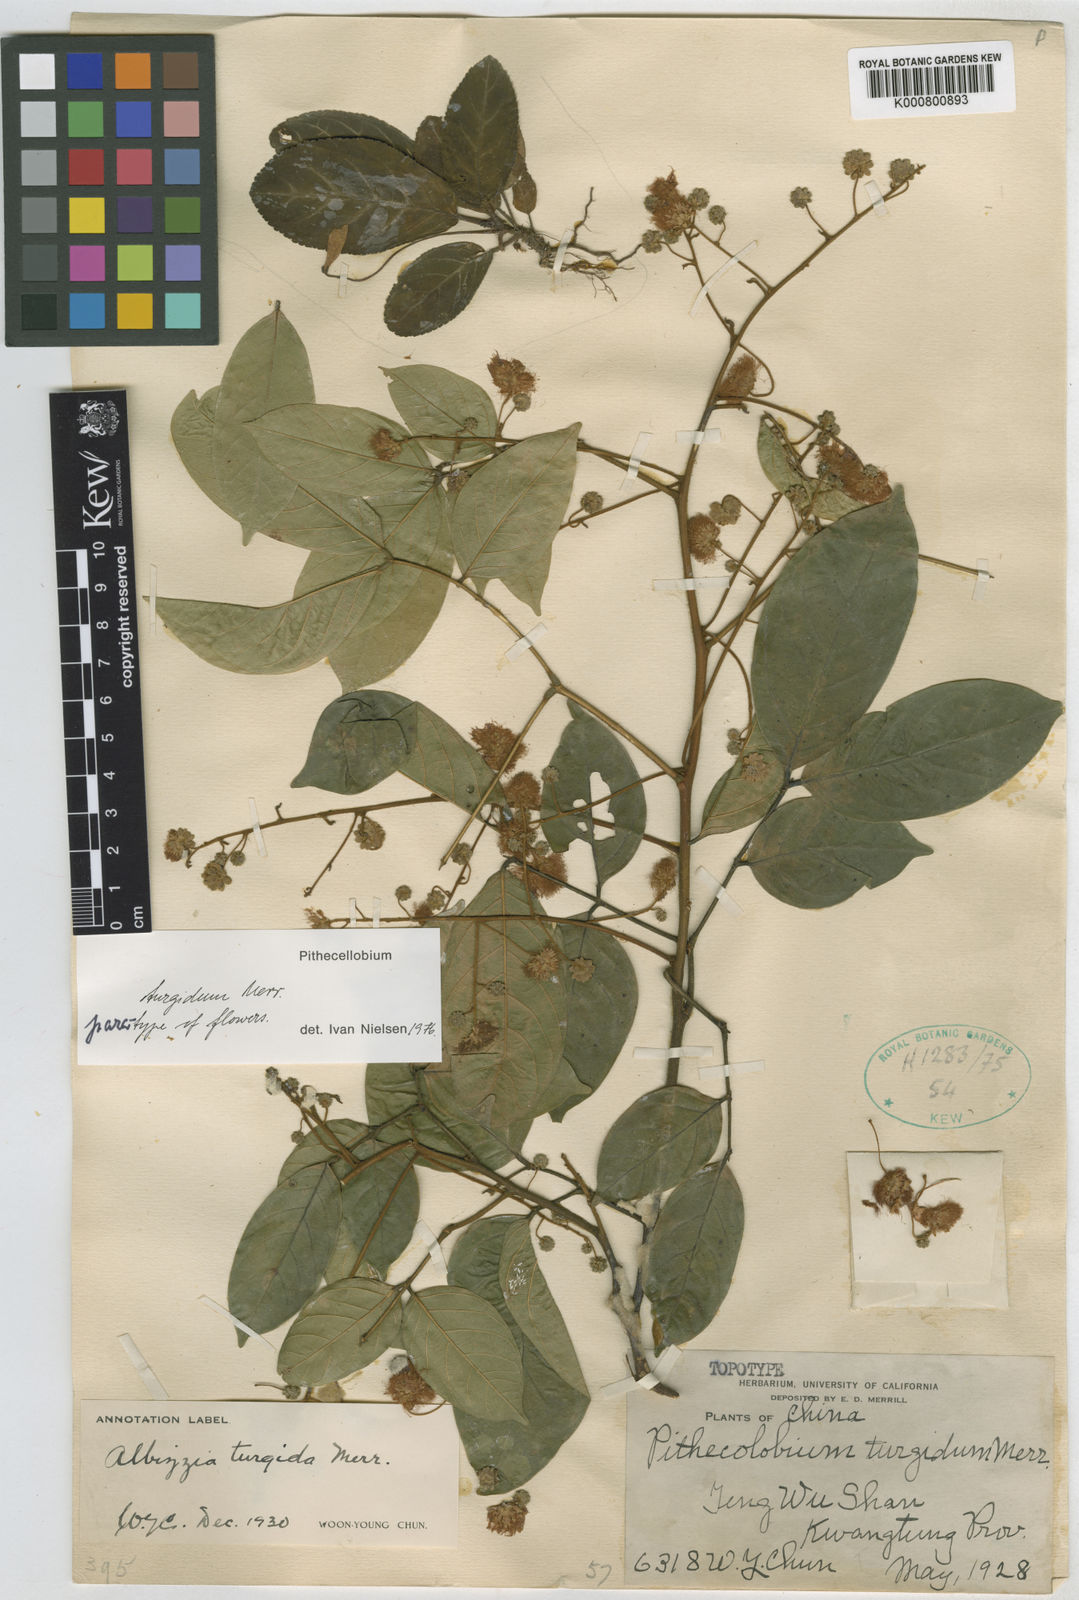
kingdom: Plantae
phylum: Tracheophyta
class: Magnoliopsida
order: Fabales
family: Fabaceae
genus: Archidendron
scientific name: Archidendron turgidum
